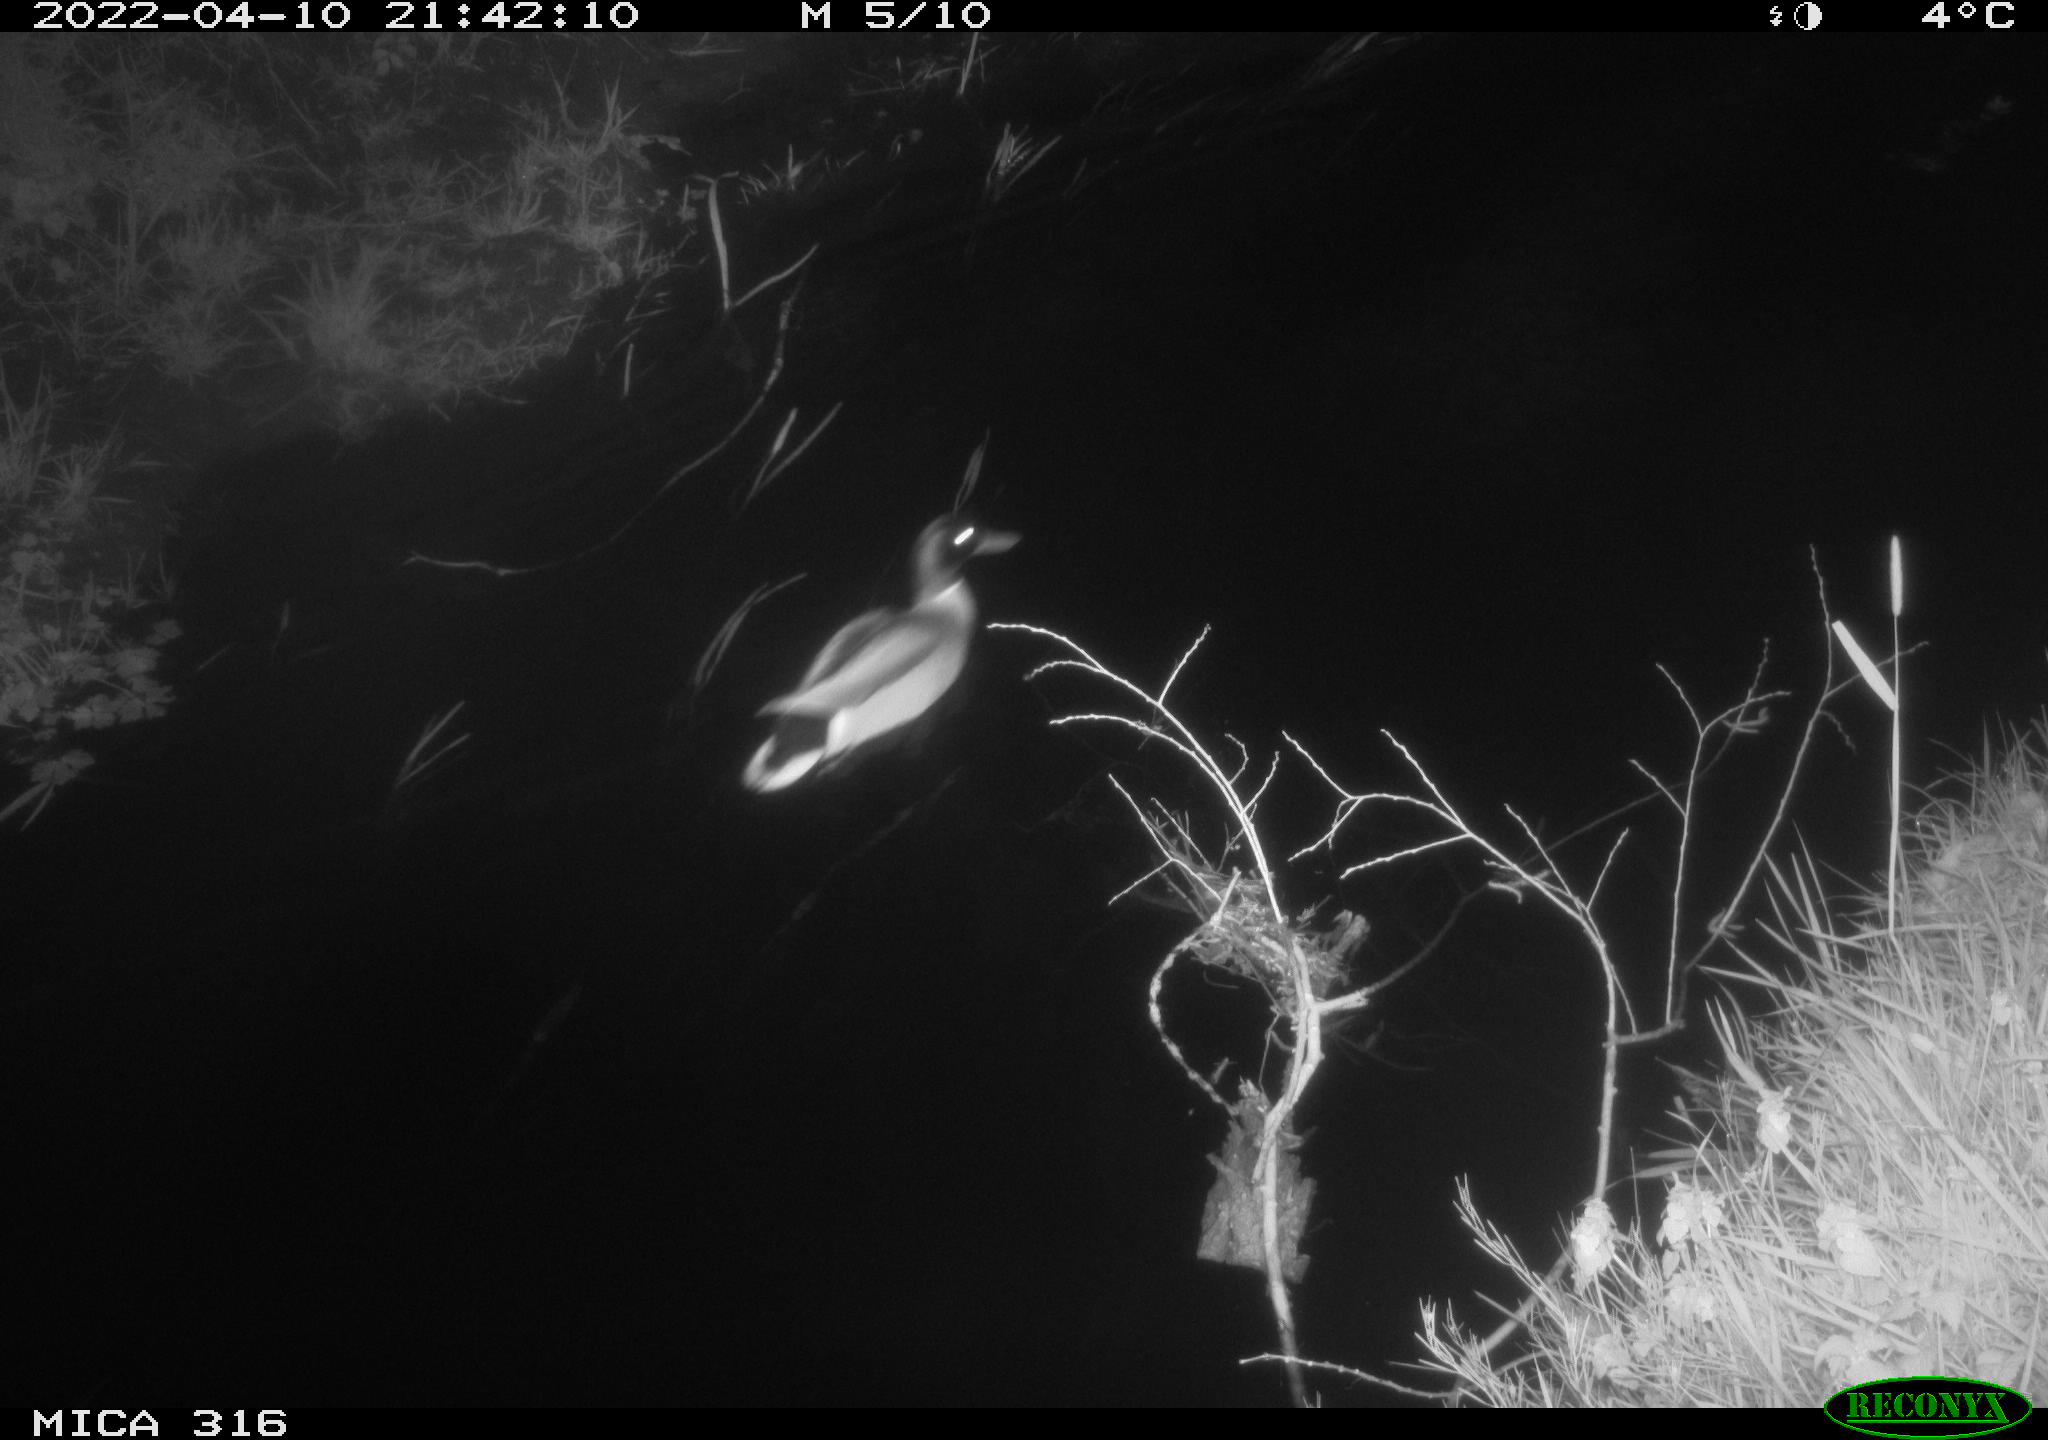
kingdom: Animalia
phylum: Chordata
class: Aves
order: Anseriformes
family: Anatidae
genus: Anas
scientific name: Anas platyrhynchos
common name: Mallard
